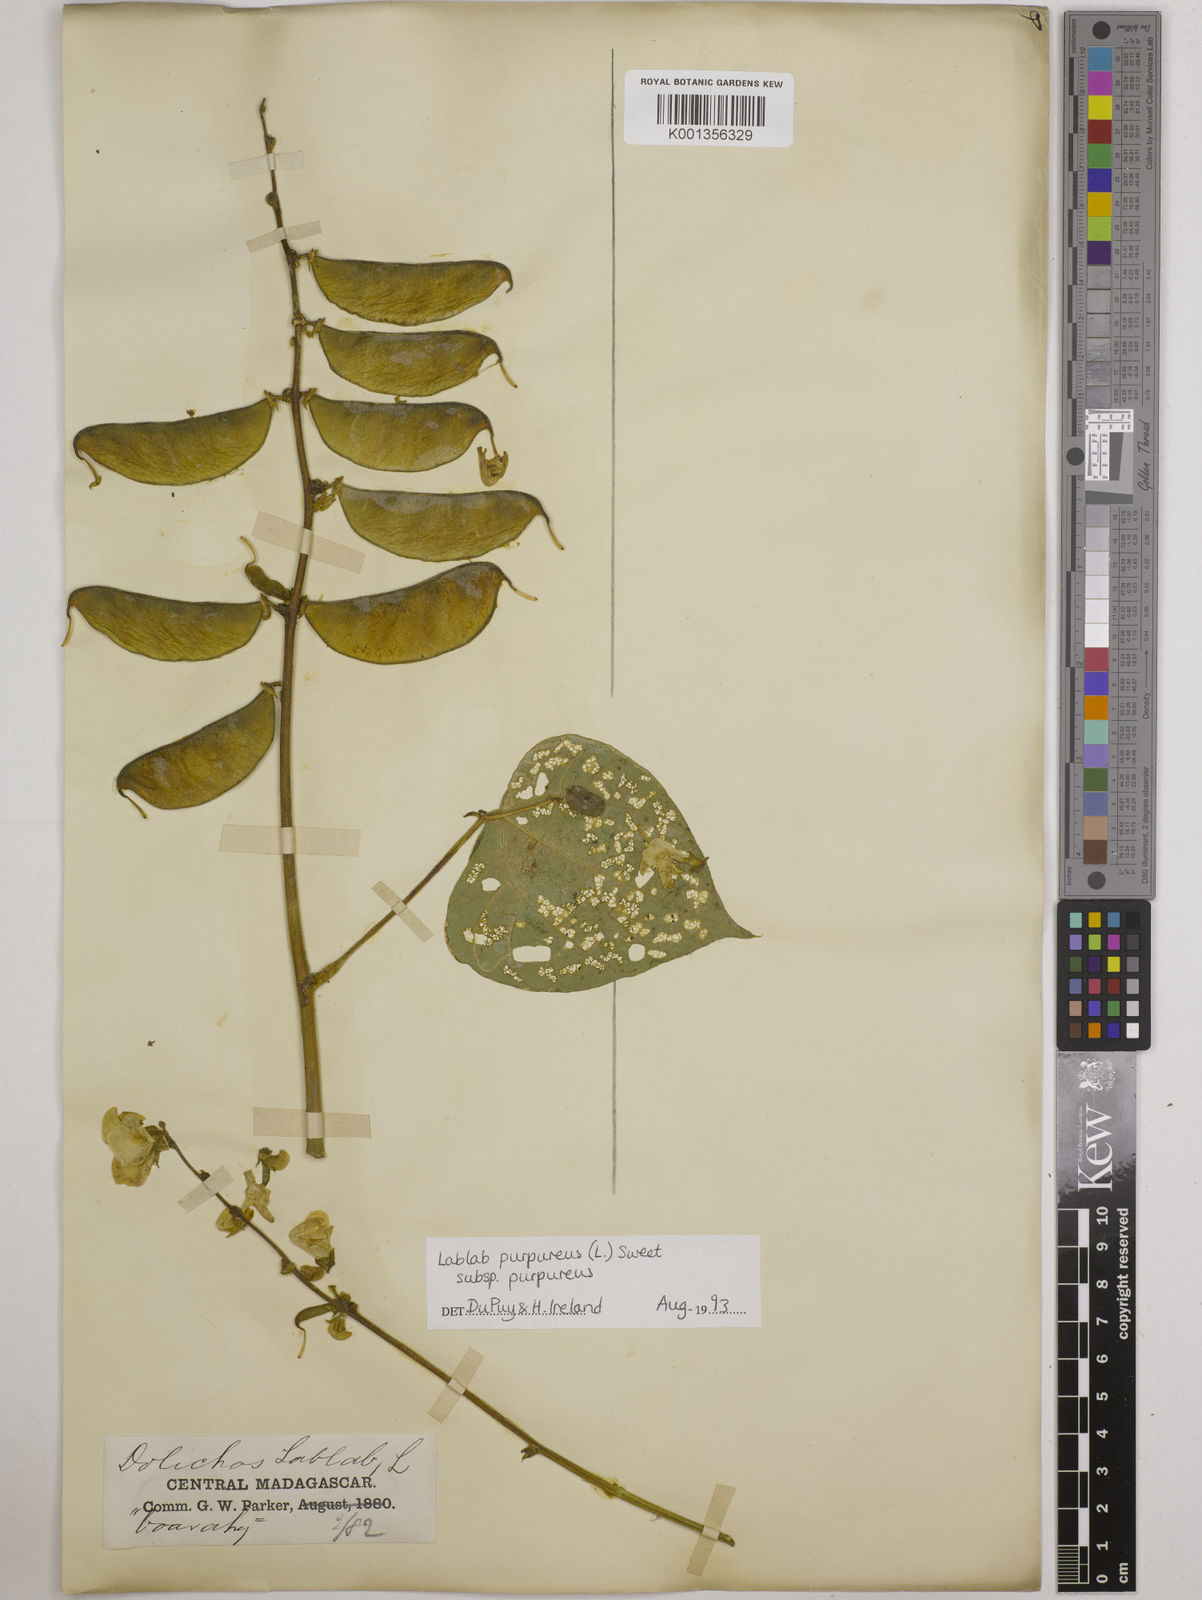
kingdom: Plantae
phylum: Tracheophyta
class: Magnoliopsida
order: Fabales
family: Fabaceae
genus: Lablab
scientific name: Lablab purpureus
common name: Lablab-bean
